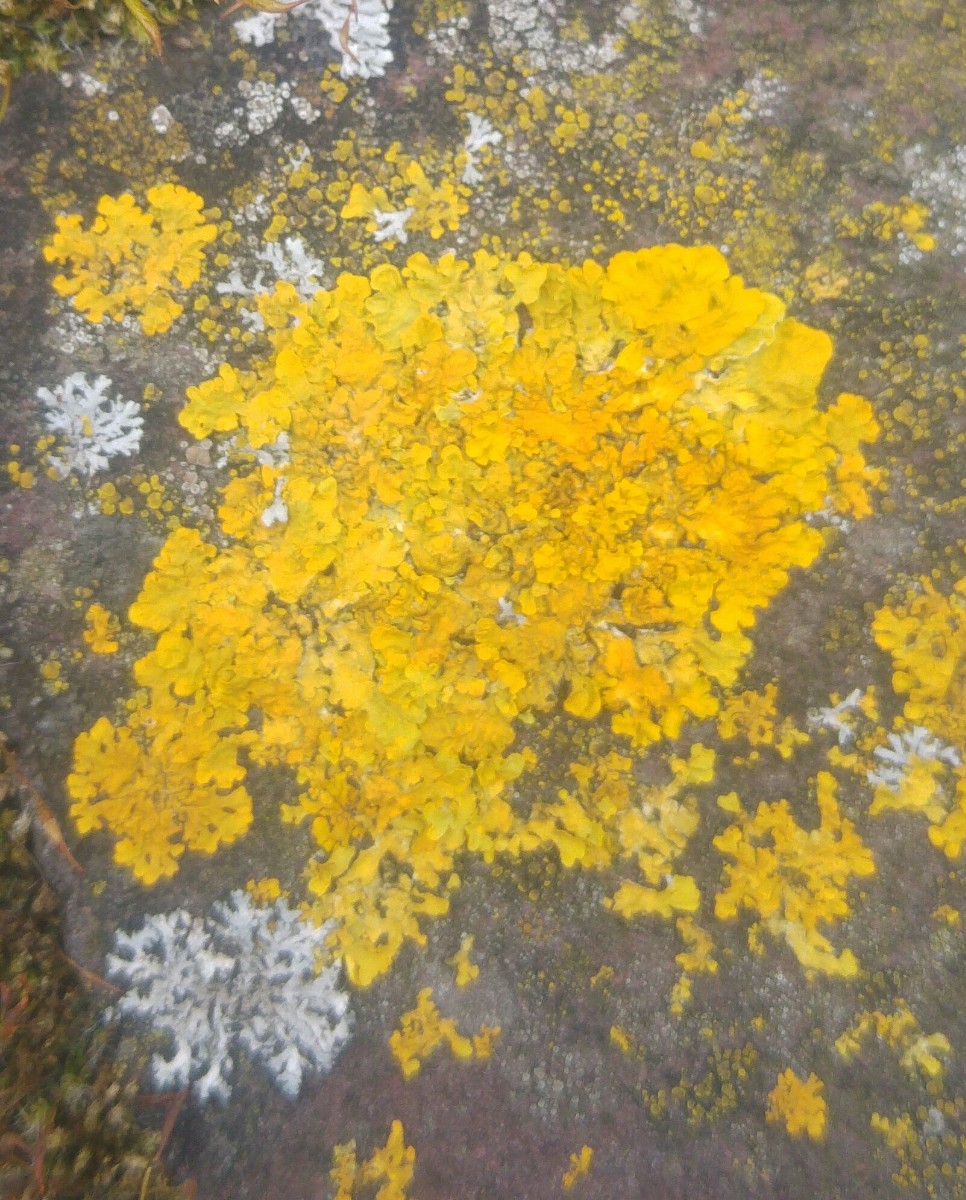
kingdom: Fungi
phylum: Ascomycota
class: Lecanoromycetes
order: Teloschistales
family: Teloschistaceae
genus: Xanthoria
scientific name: Xanthoria parietina
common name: almindelig væggelav
